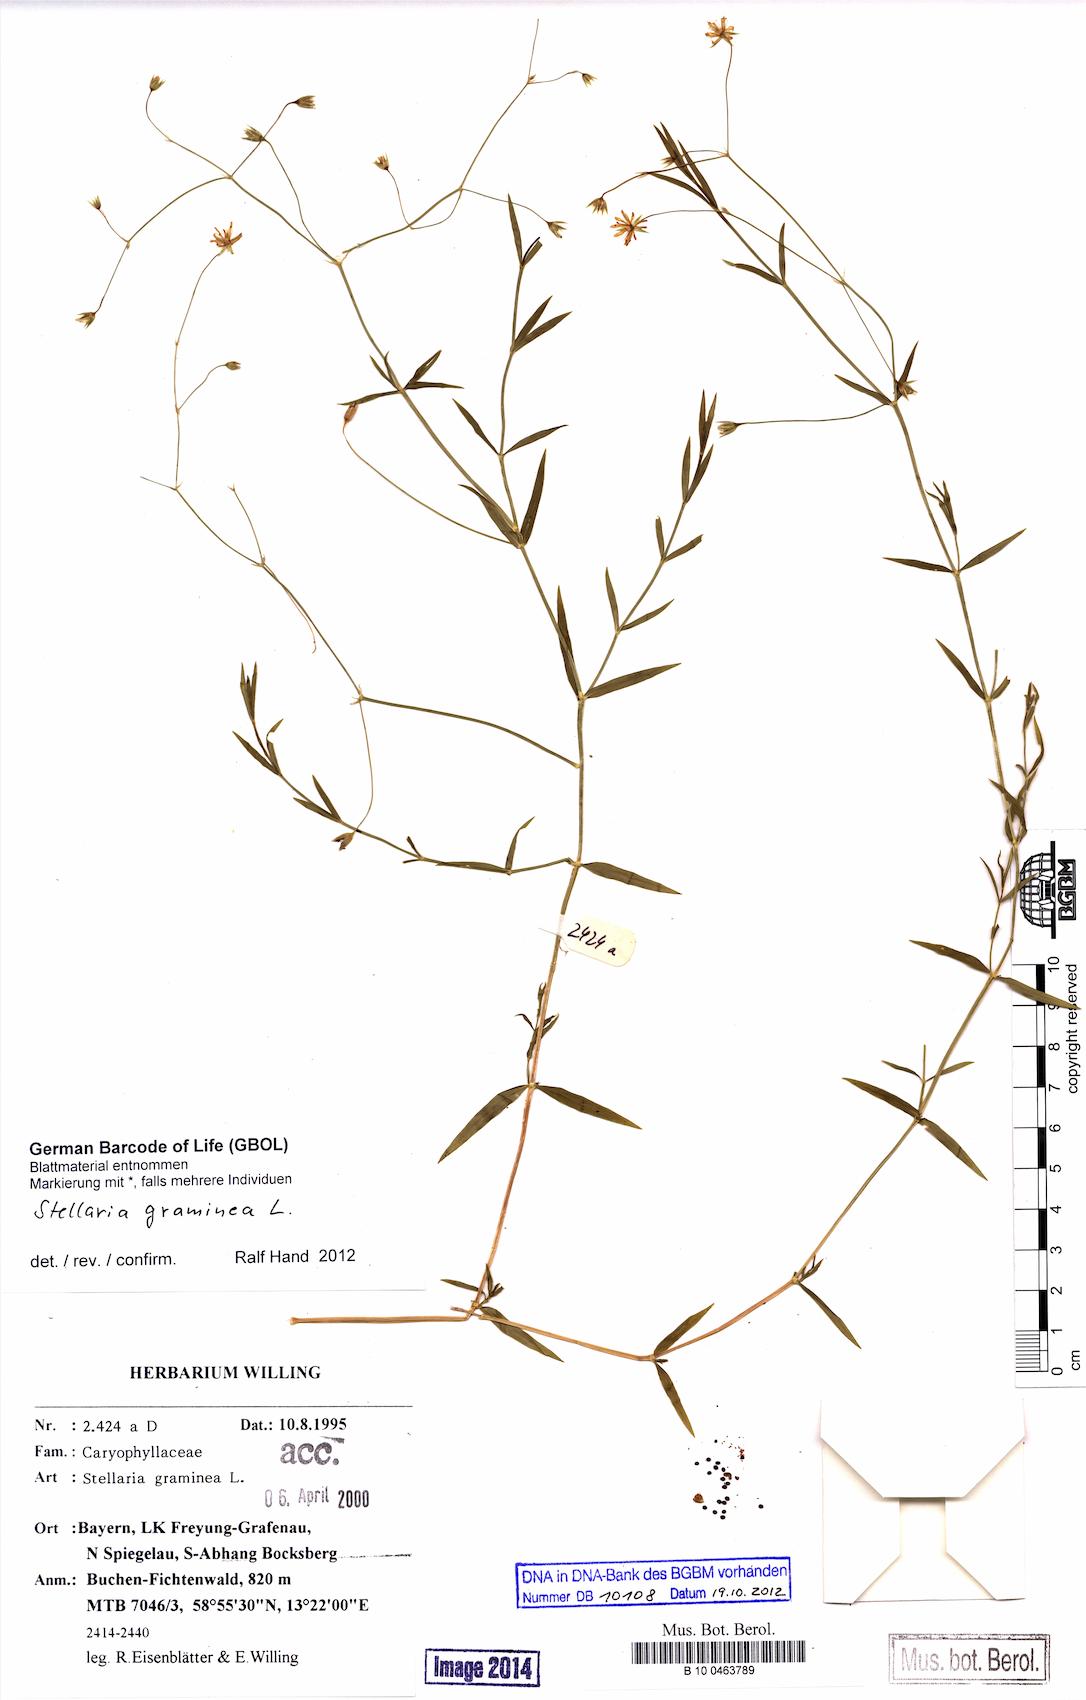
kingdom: Plantae
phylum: Tracheophyta
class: Magnoliopsida
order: Caryophyllales
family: Caryophyllaceae
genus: Stellaria
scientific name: Stellaria graminea
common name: Grass-like starwort
